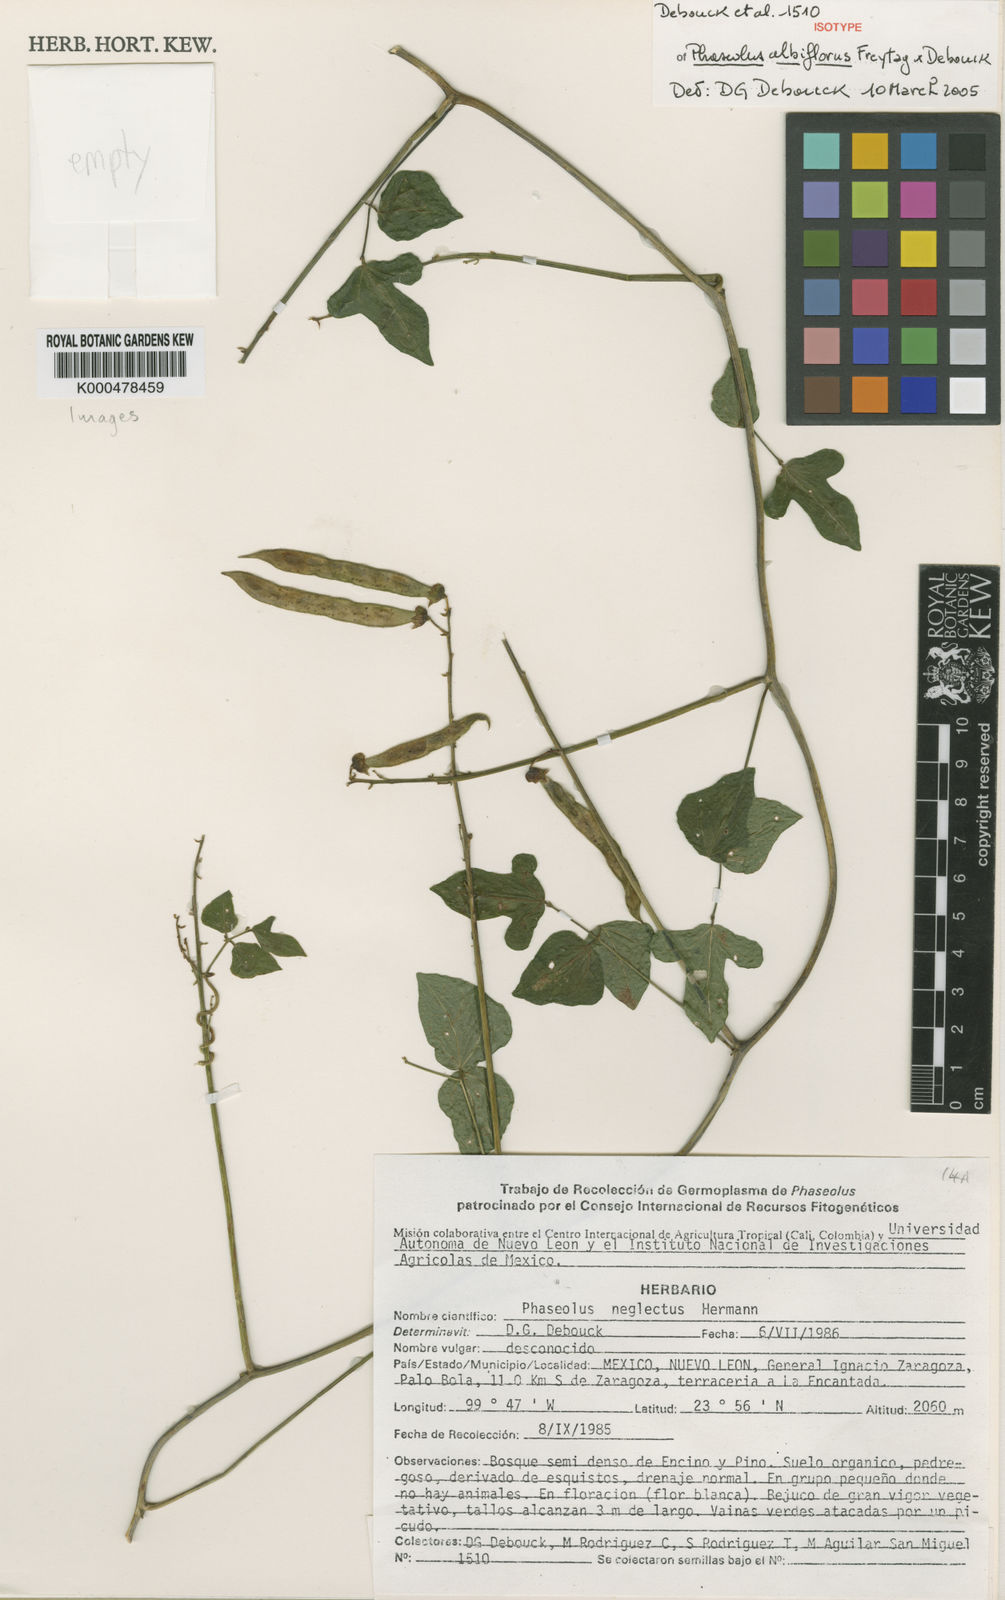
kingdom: Plantae
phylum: Tracheophyta
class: Magnoliopsida
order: Fabales
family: Fabaceae
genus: Phaseolus
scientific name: Phaseolus albiflorus
